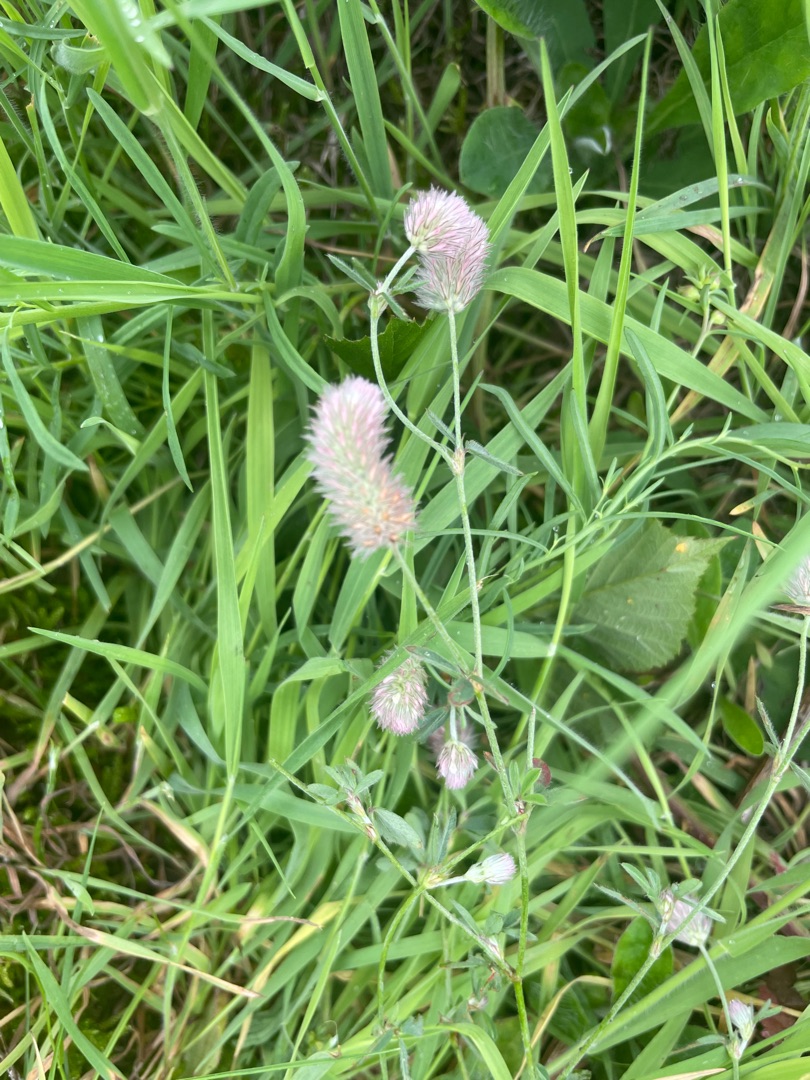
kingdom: Plantae
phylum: Tracheophyta
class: Magnoliopsida
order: Fabales
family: Fabaceae
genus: Trifolium
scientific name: Trifolium arvense
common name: Hare-kløver
